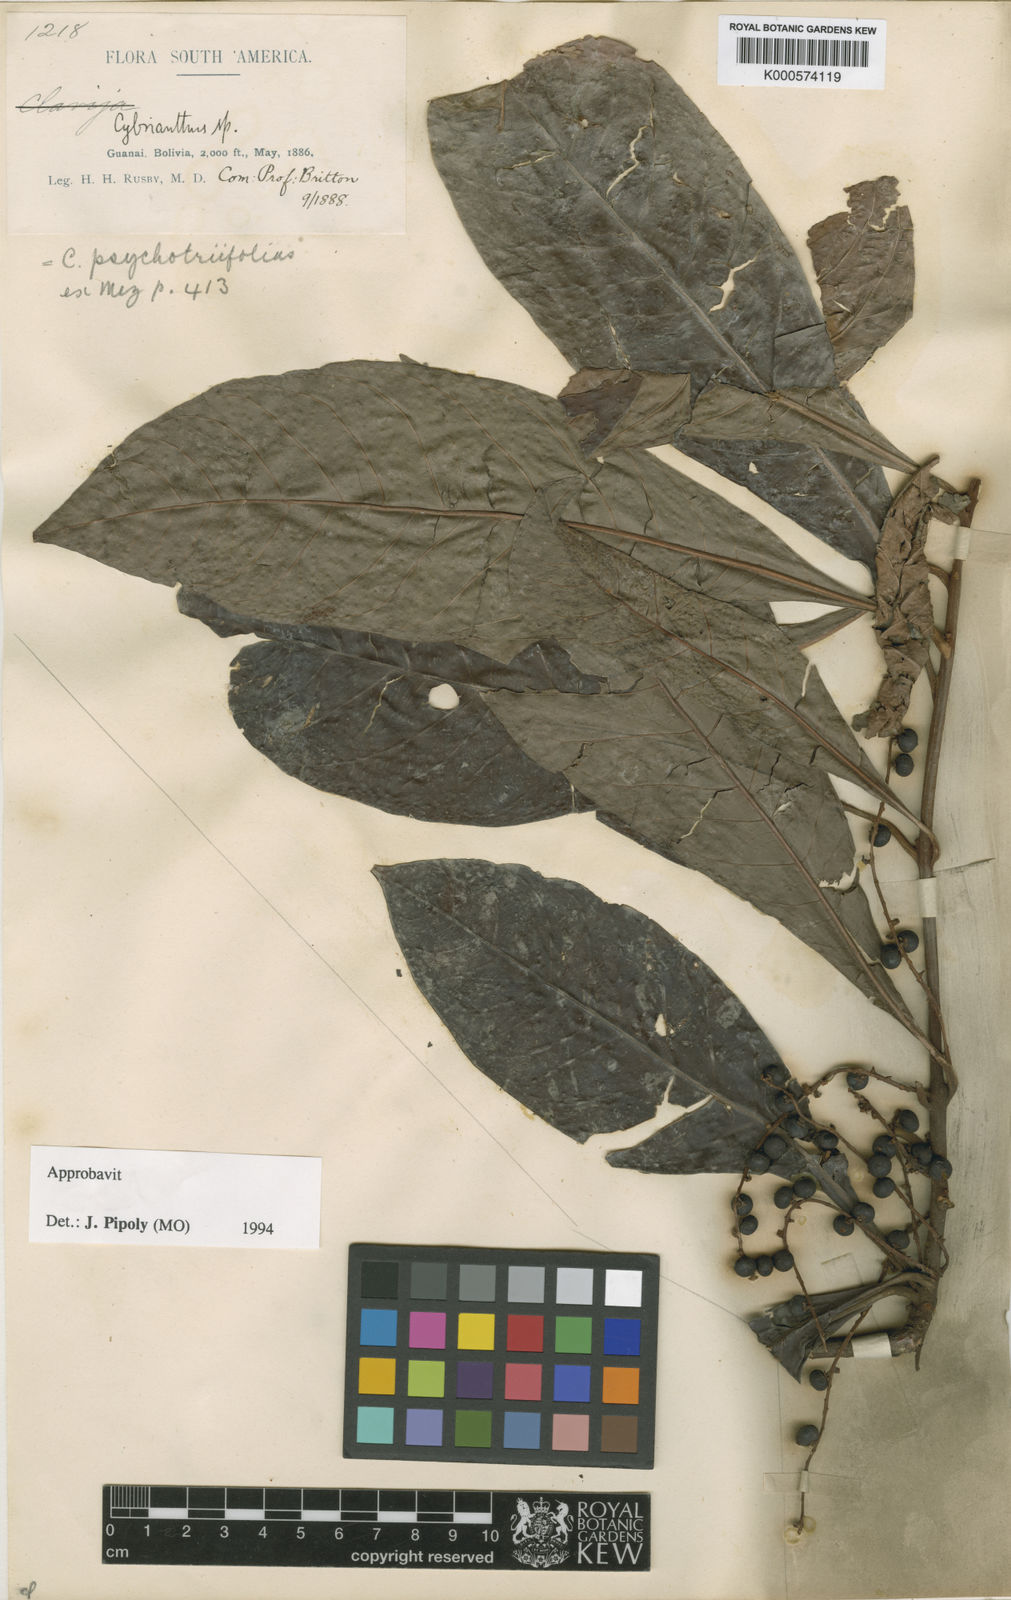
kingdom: Plantae
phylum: Tracheophyta
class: Magnoliopsida
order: Ericales
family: Primulaceae
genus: Cybianthus
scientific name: Cybianthus psychotriifolius
